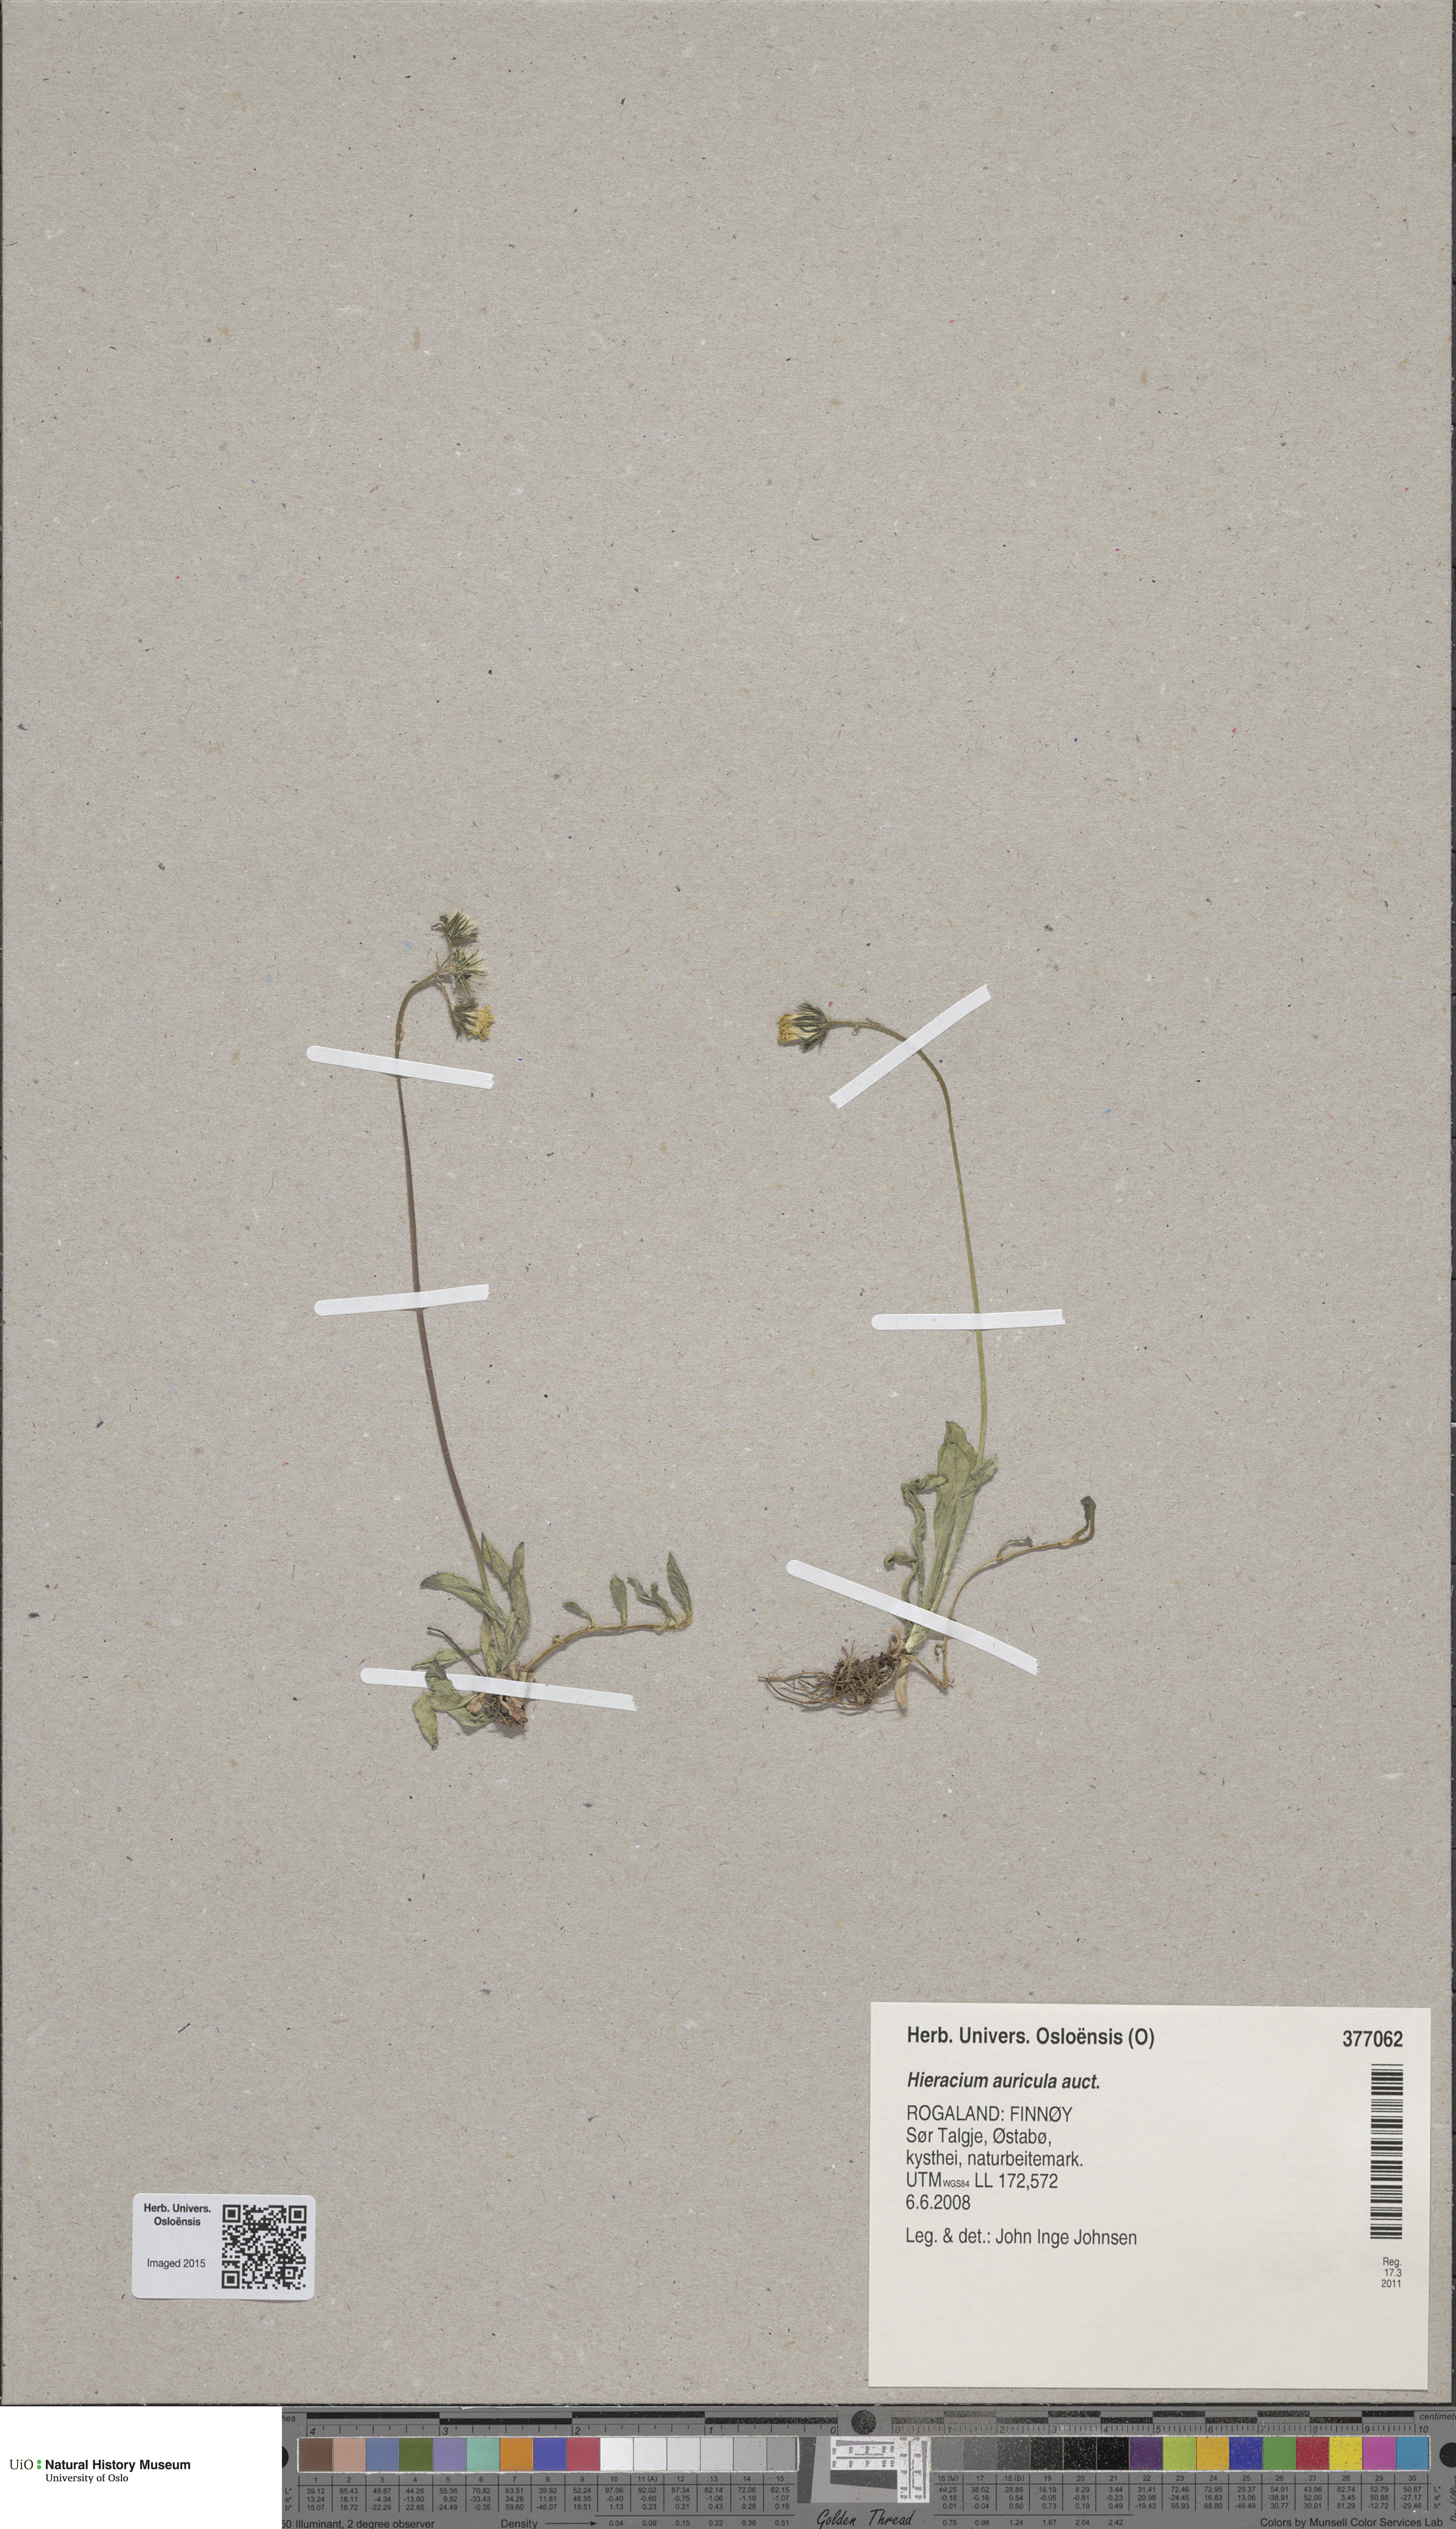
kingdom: Plantae
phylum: Tracheophyta
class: Magnoliopsida
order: Asterales
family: Asteraceae
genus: Pilosella
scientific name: Pilosella lactucella
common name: Glaucous fox-and-cubs
